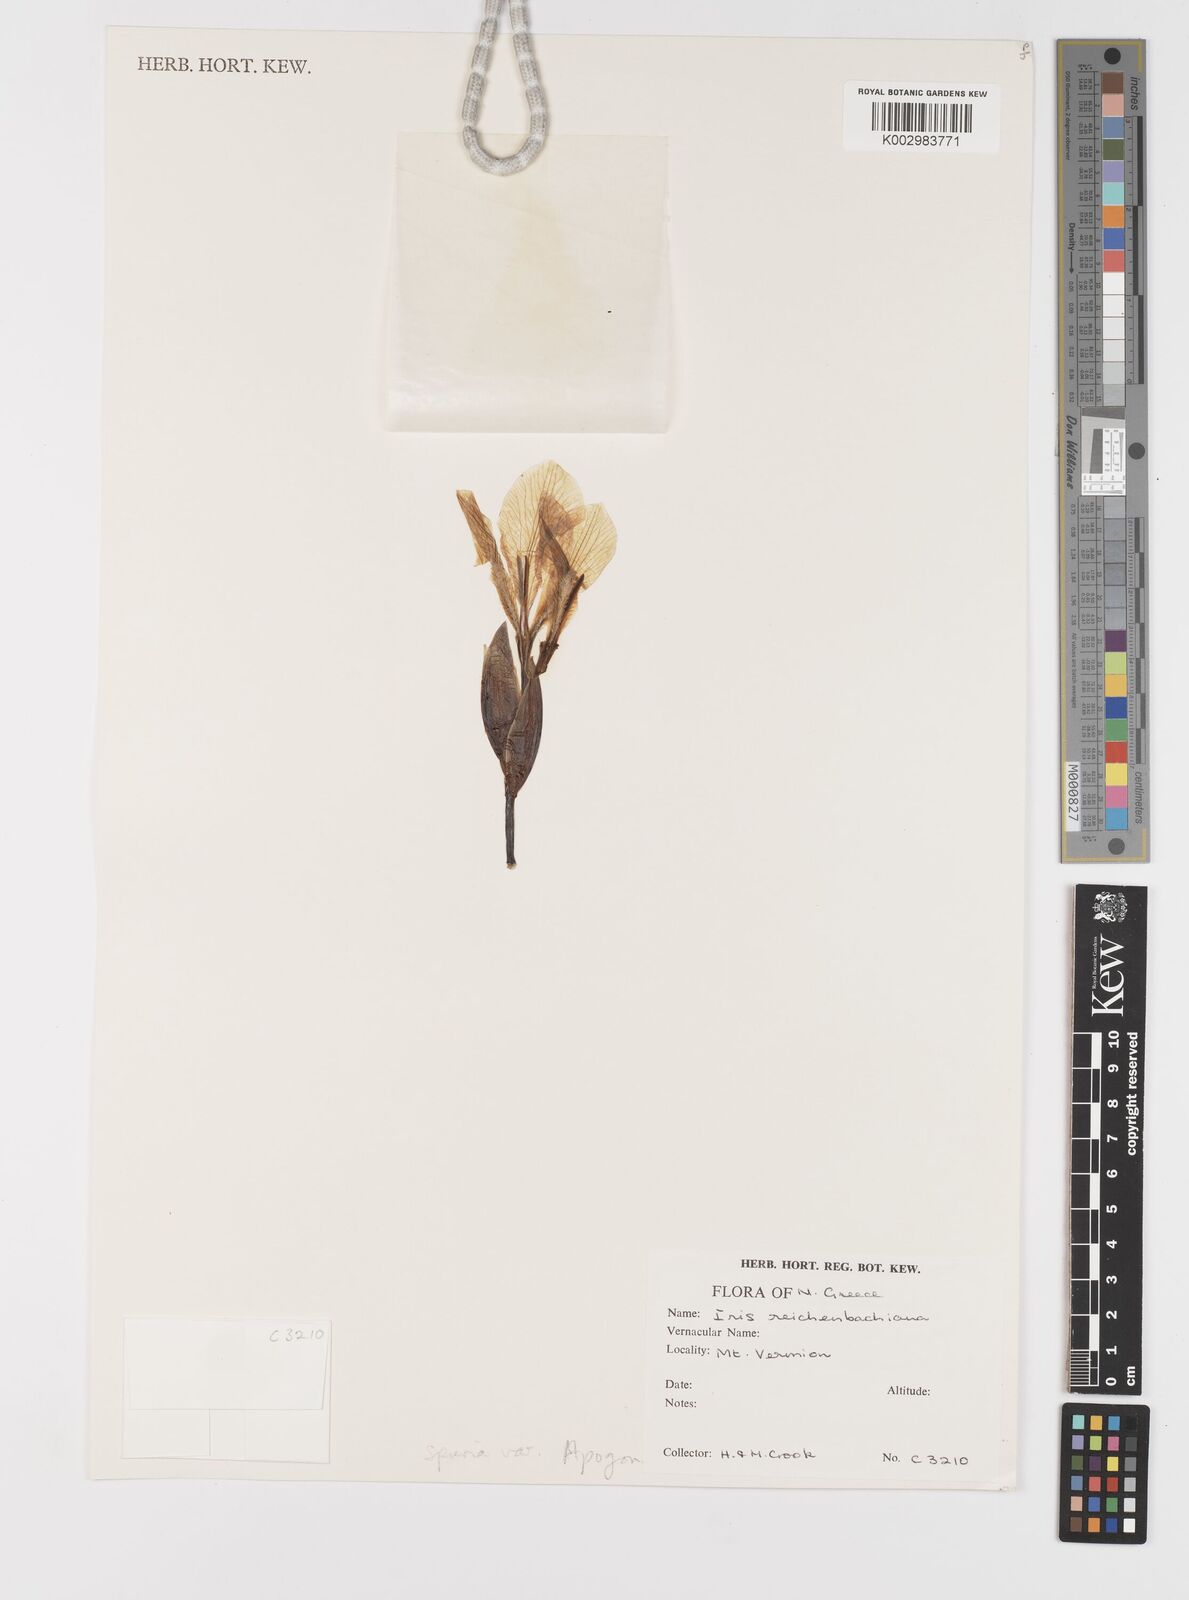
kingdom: Plantae
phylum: Tracheophyta
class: Liliopsida
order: Asparagales
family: Iridaceae
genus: Iris
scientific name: Iris reichenbachii
